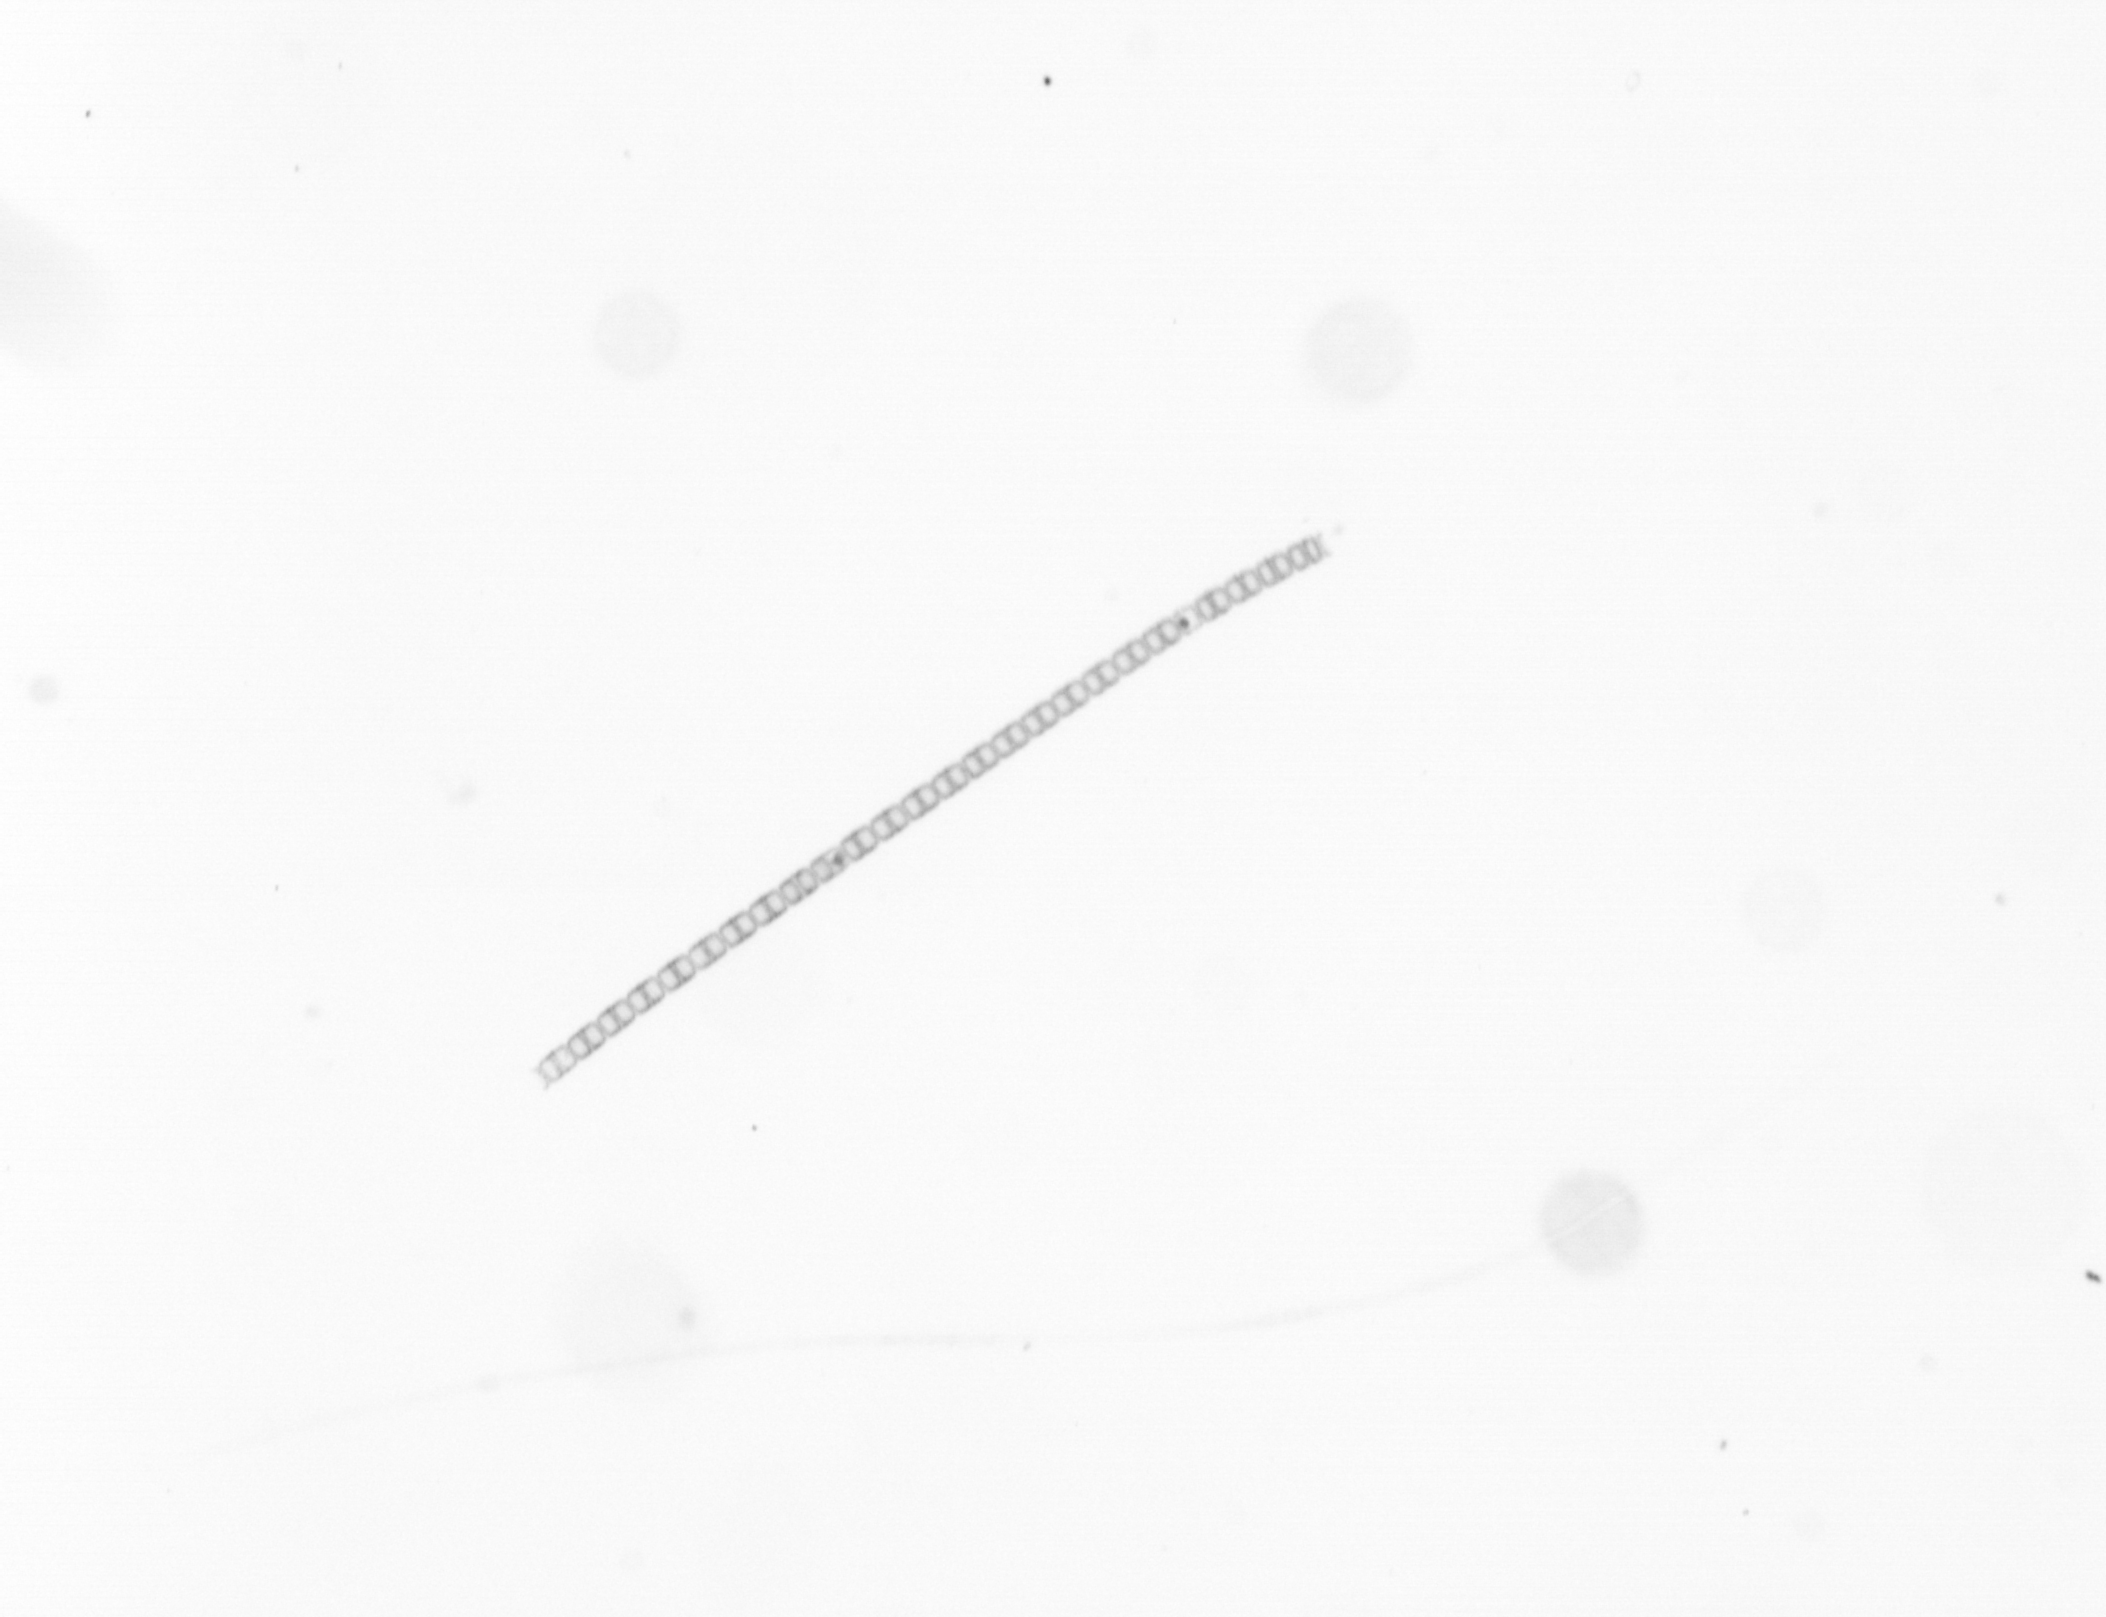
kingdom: Chromista
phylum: Ochrophyta
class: Bacillariophyceae
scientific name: Bacillariophyceae
